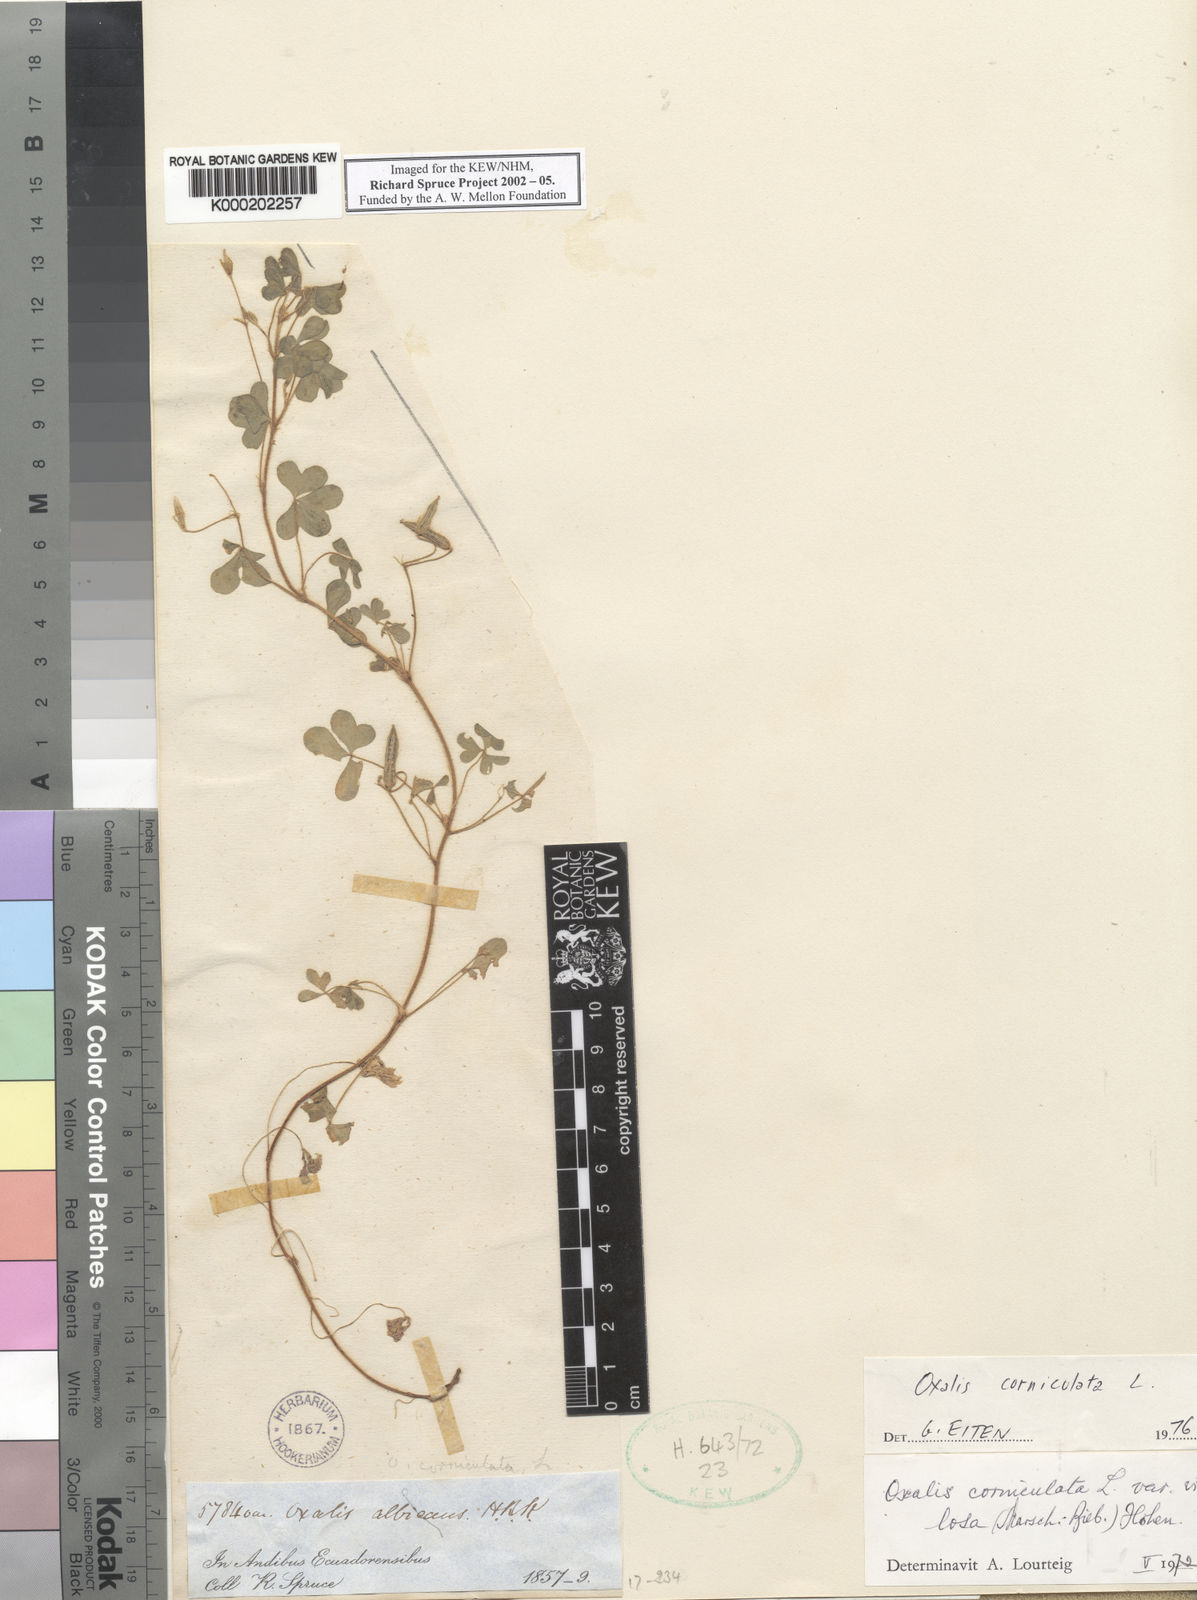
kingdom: Plantae
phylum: Tracheophyta
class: Magnoliopsida
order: Oxalidales
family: Oxalidaceae
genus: Oxalis
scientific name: Oxalis corniculata
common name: Procumbent yellow-sorrel
